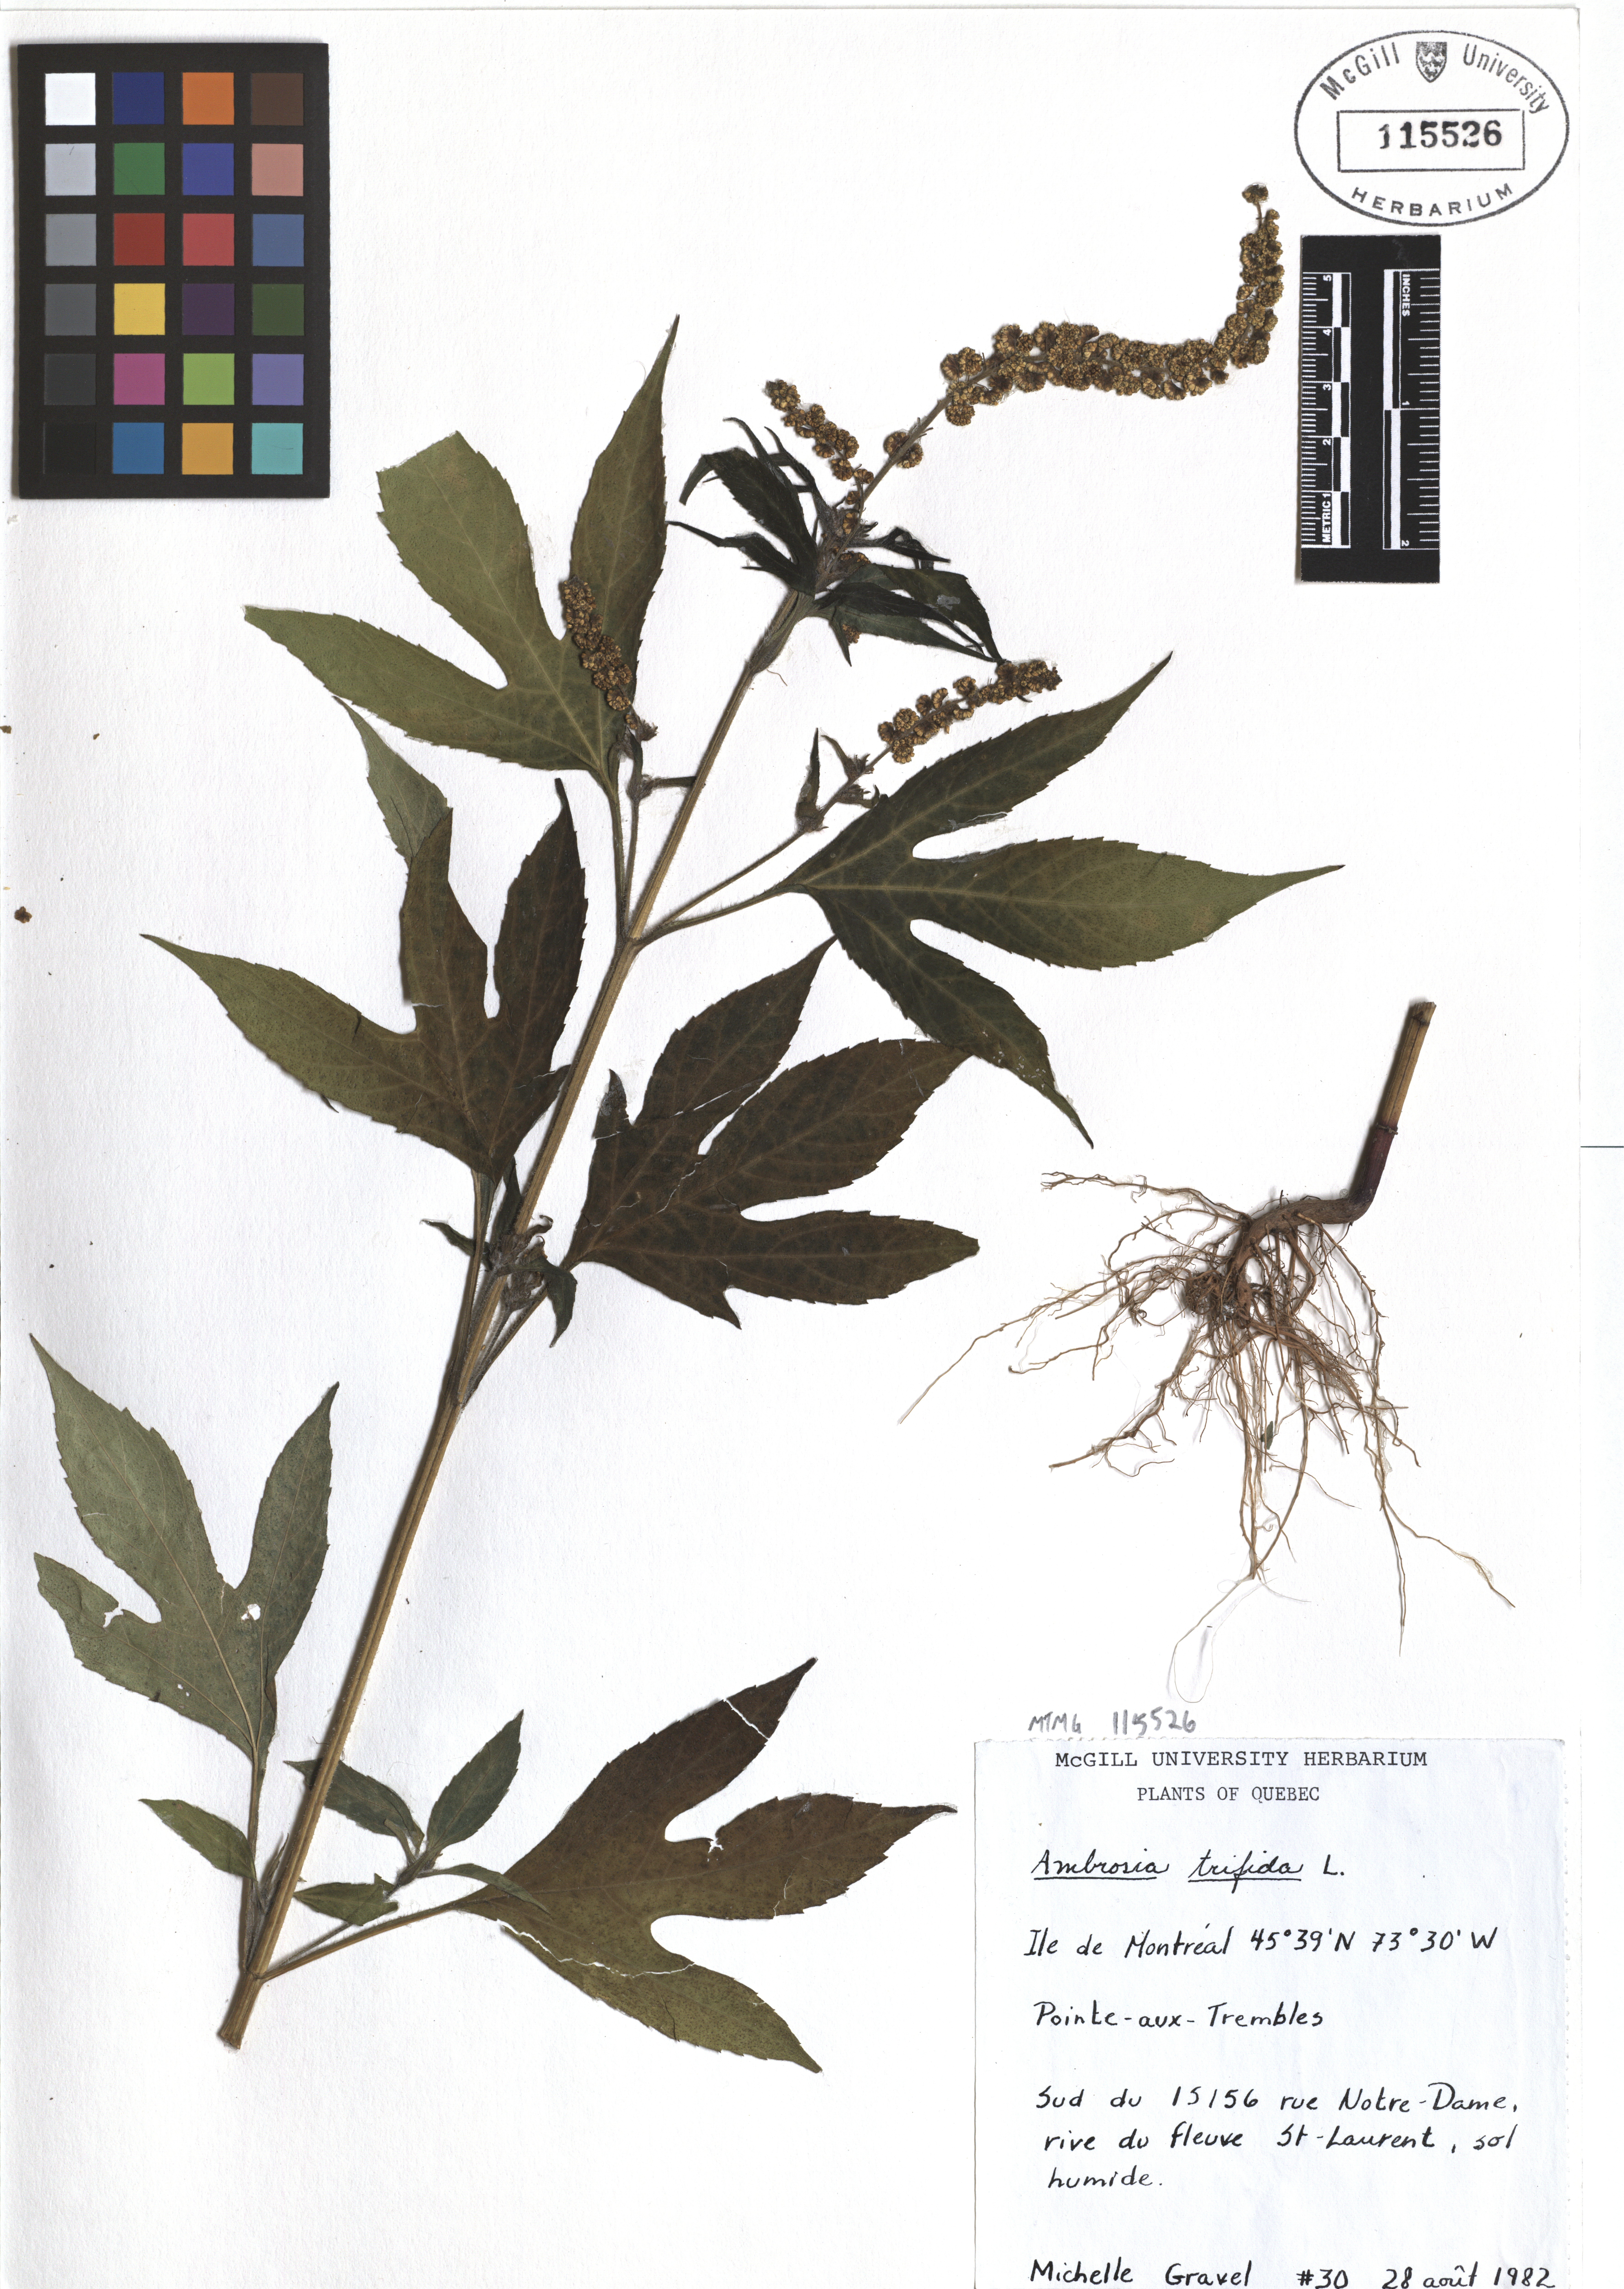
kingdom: Plantae
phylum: Tracheophyta
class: Magnoliopsida
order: Asterales
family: Asteraceae
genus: Ambrosia
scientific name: Ambrosia trifida
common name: Giant ragweed
